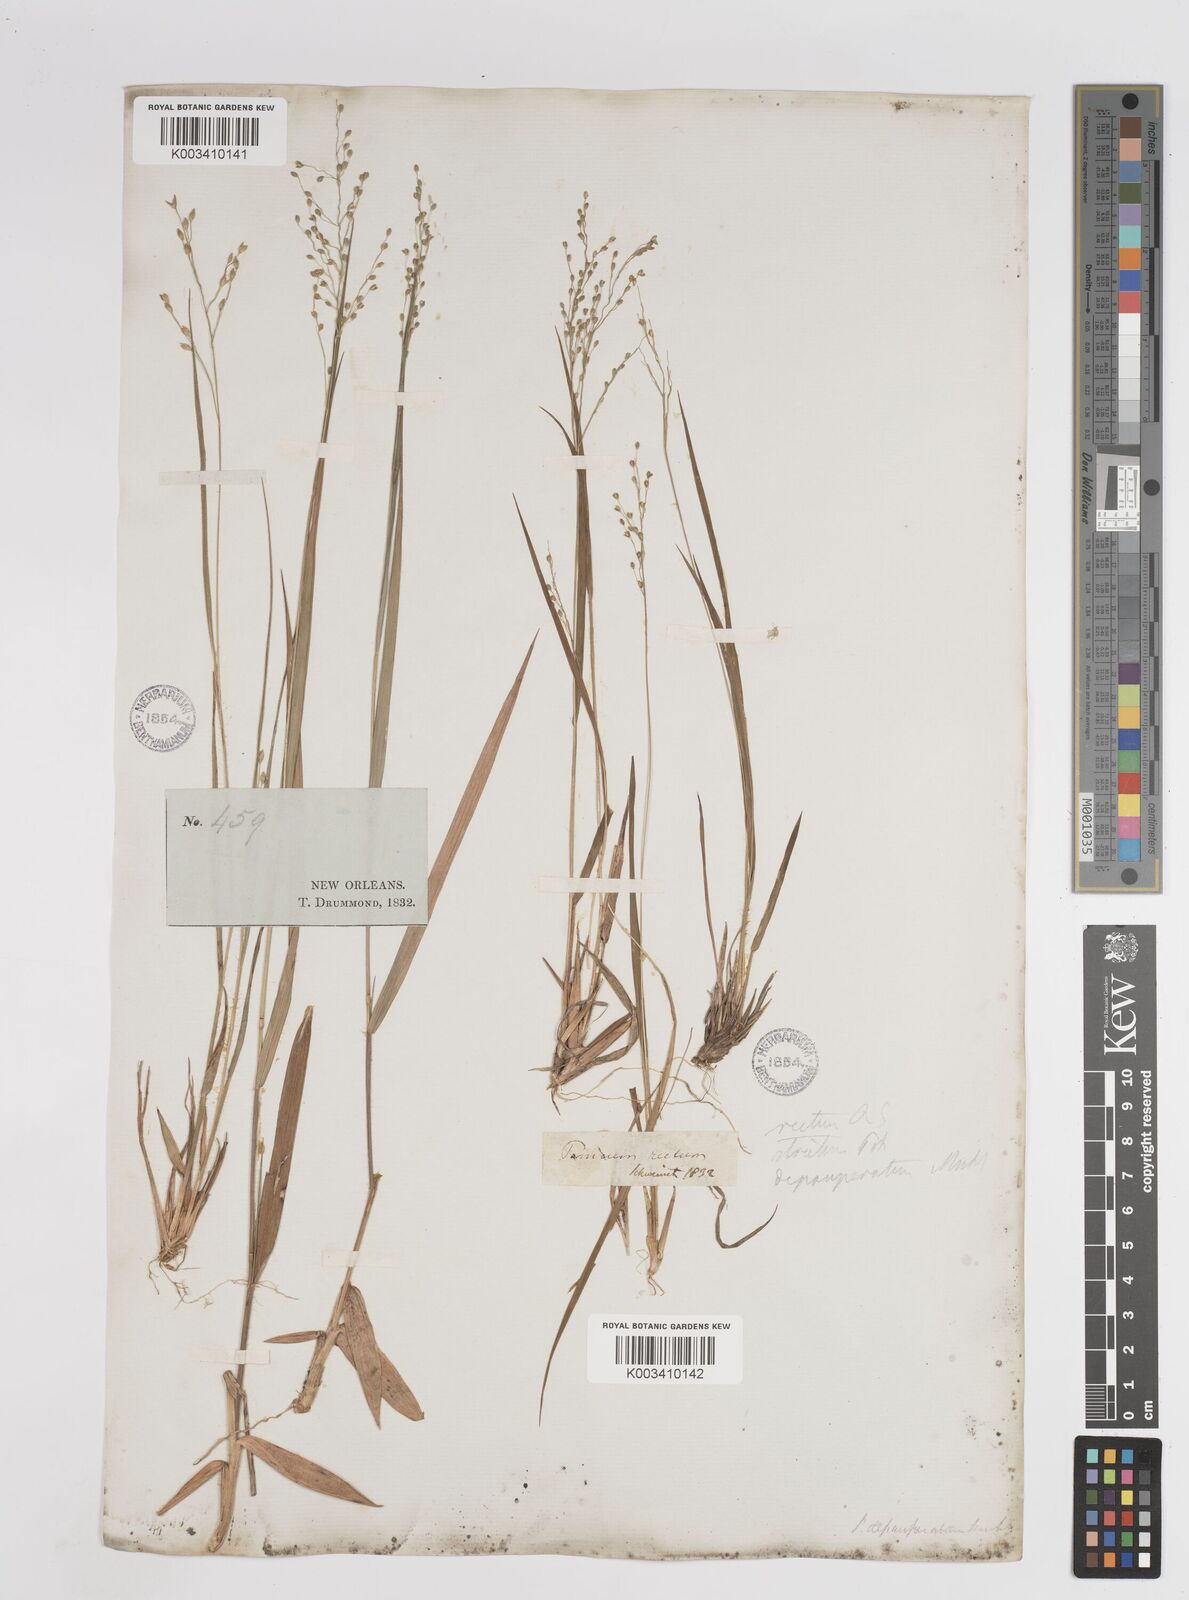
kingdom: Plantae
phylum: Tracheophyta
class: Liliopsida
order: Poales
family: Poaceae
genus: Dichanthelium
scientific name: Dichanthelium depauperatum
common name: Depauperate panicgrass
